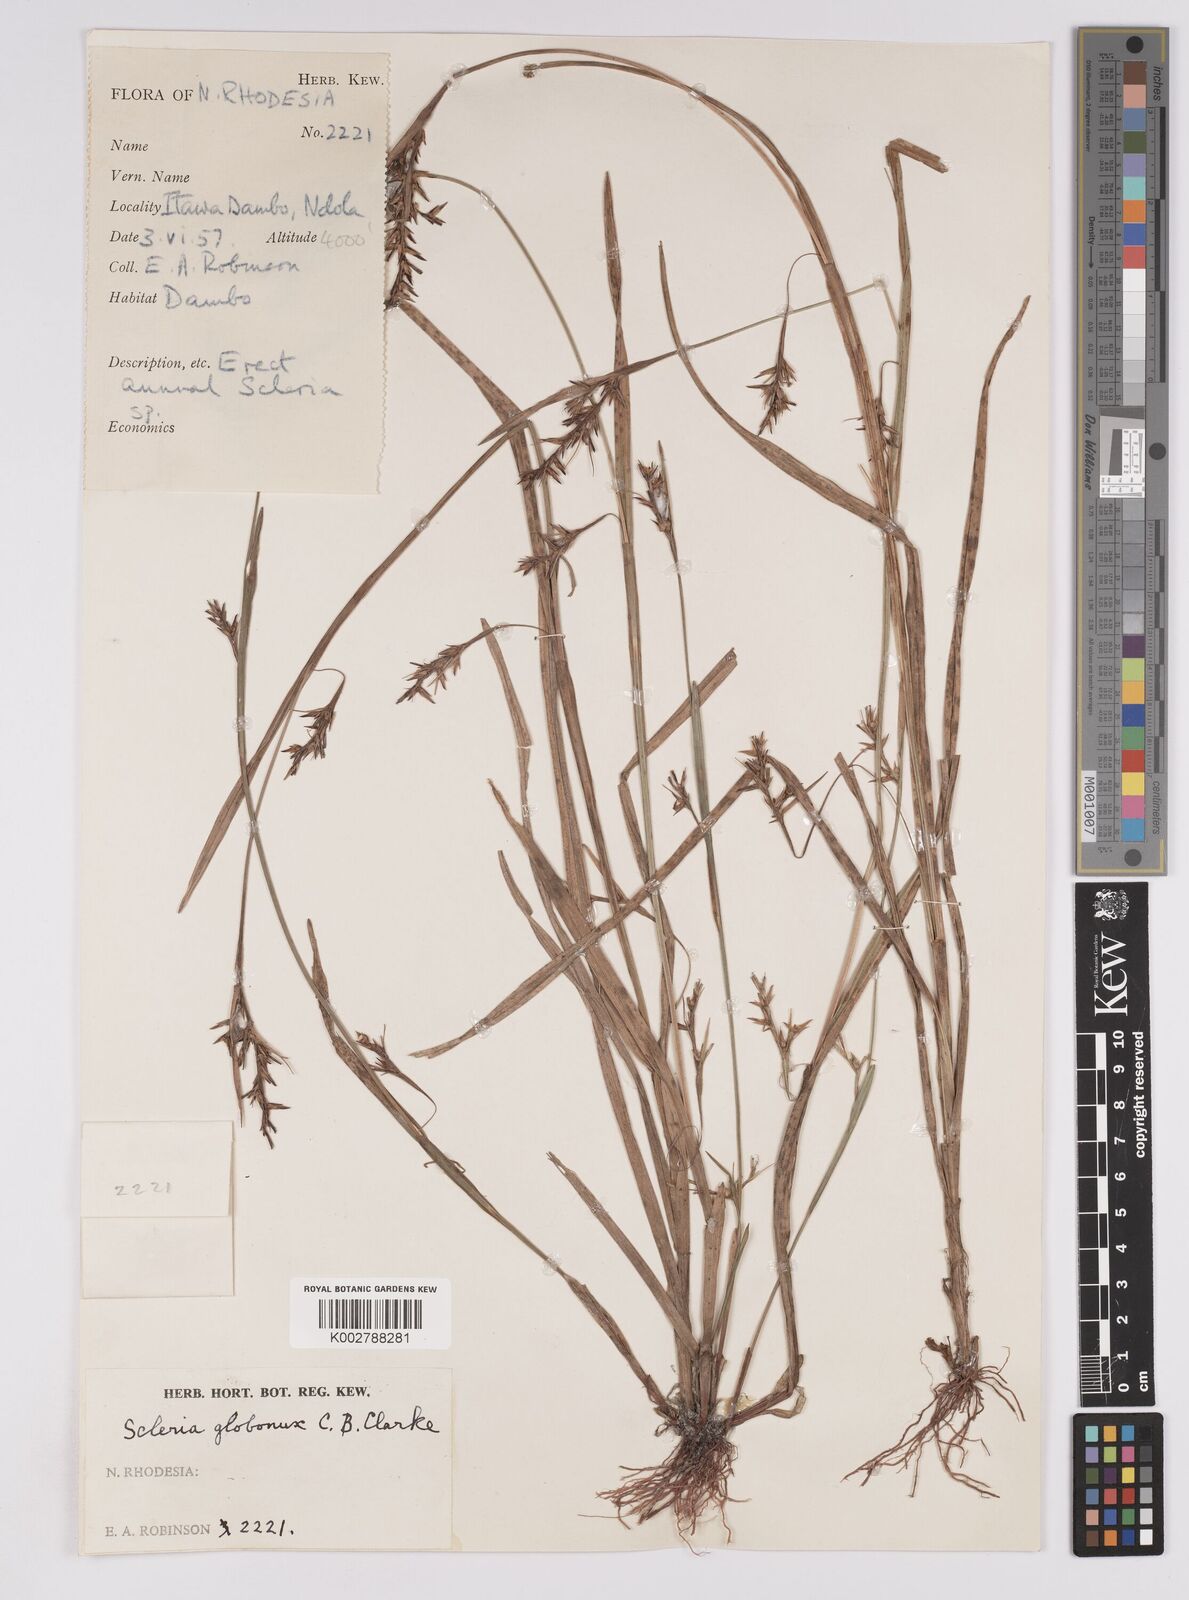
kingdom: Plantae
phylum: Tracheophyta
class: Liliopsida
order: Poales
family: Cyperaceae
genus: Scleria
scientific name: Scleria globonux
